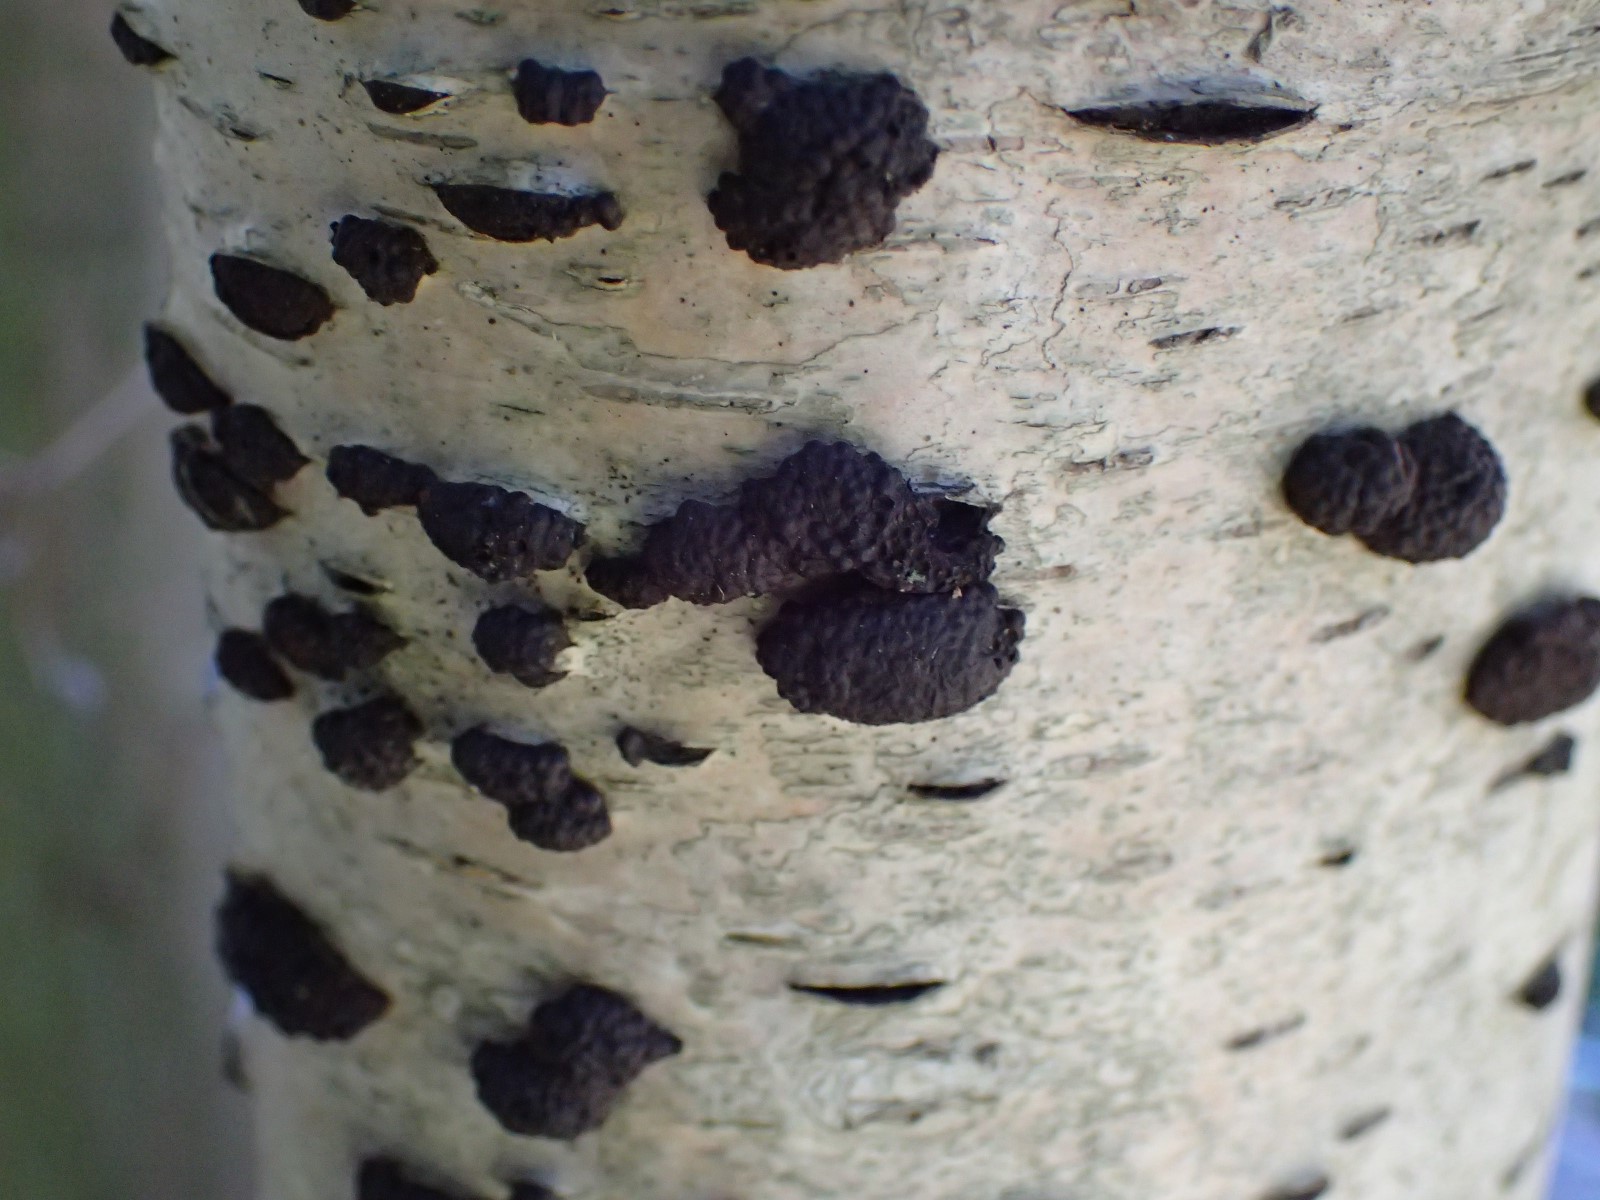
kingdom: Fungi
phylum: Ascomycota
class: Sordariomycetes
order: Xylariales
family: Hypoxylaceae
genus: Jackrogersella
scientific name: Jackrogersella multiformis
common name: foranderlig kulbær
